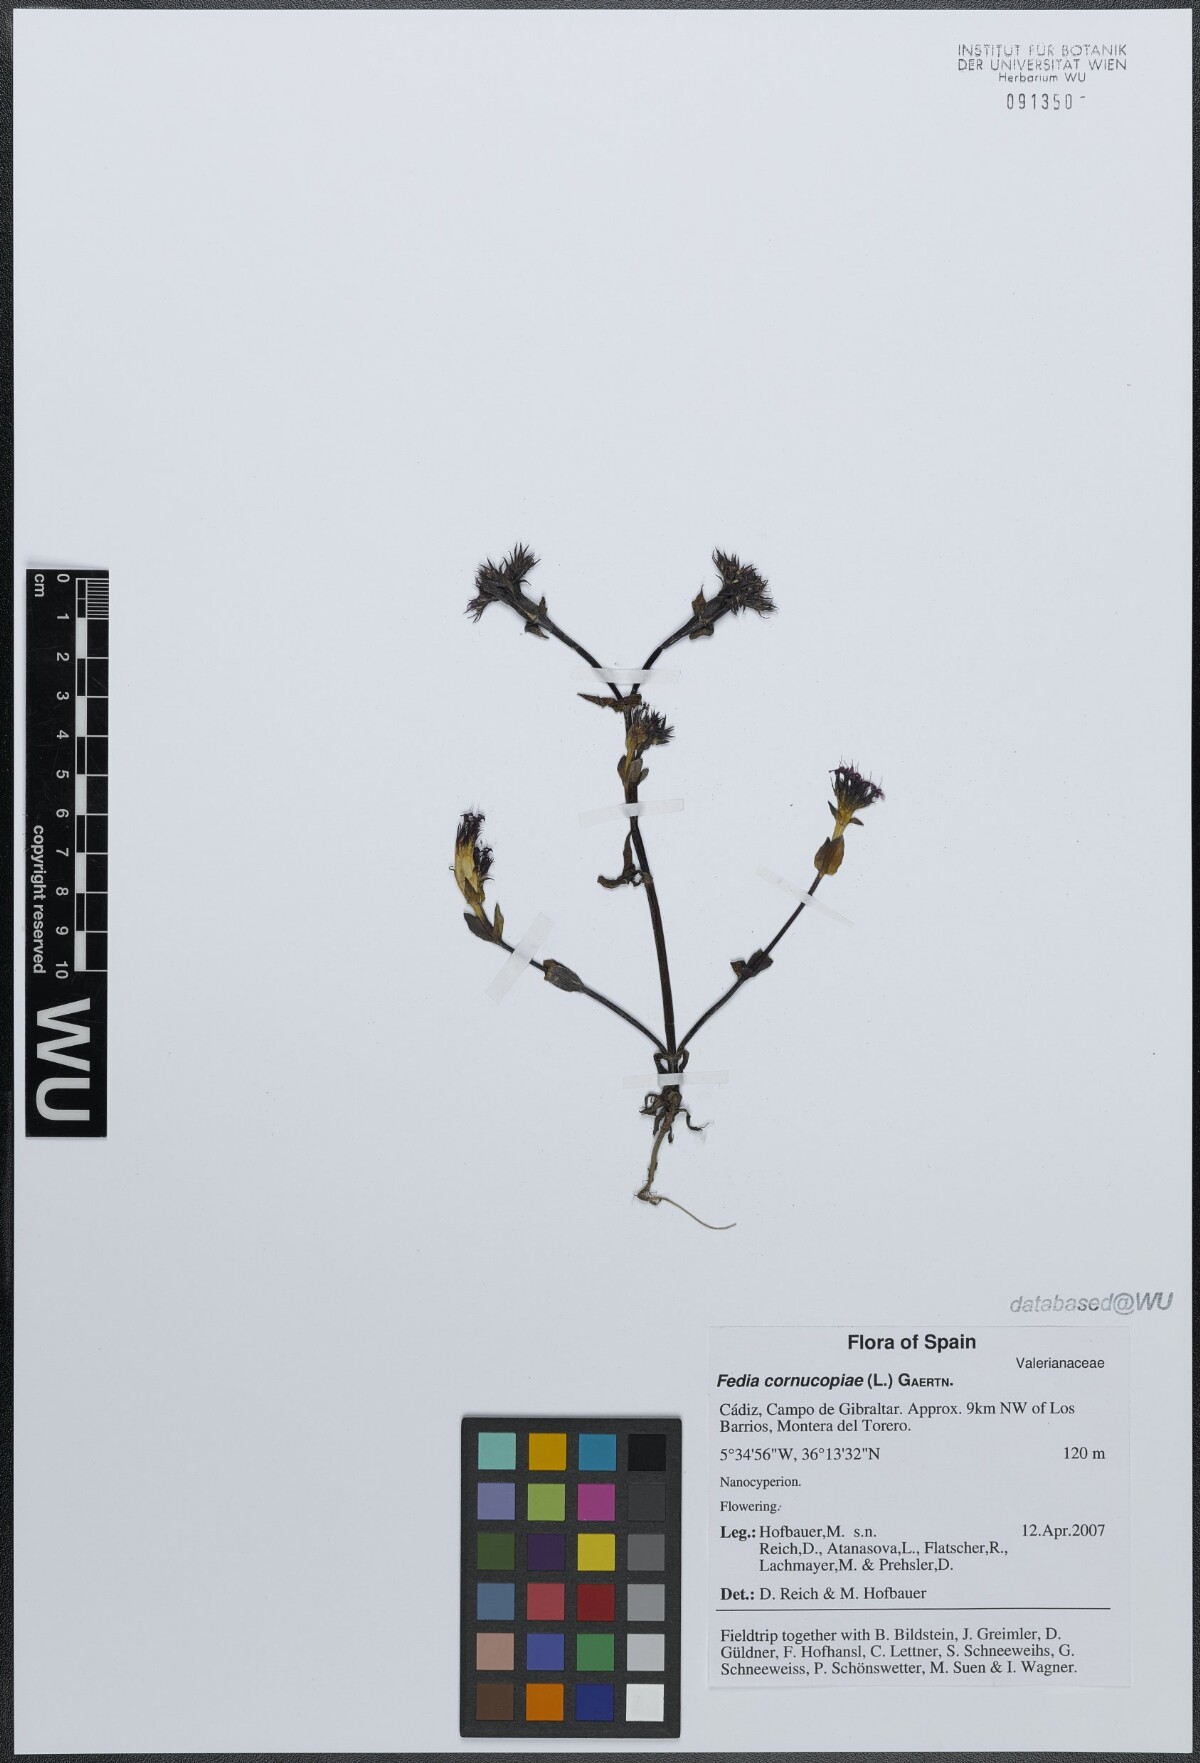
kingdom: Plantae
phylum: Tracheophyta
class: Magnoliopsida
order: Dipsacales
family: Caprifoliaceae
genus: Fedia
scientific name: Fedia cornucopiae
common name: Horn-of-plenty
